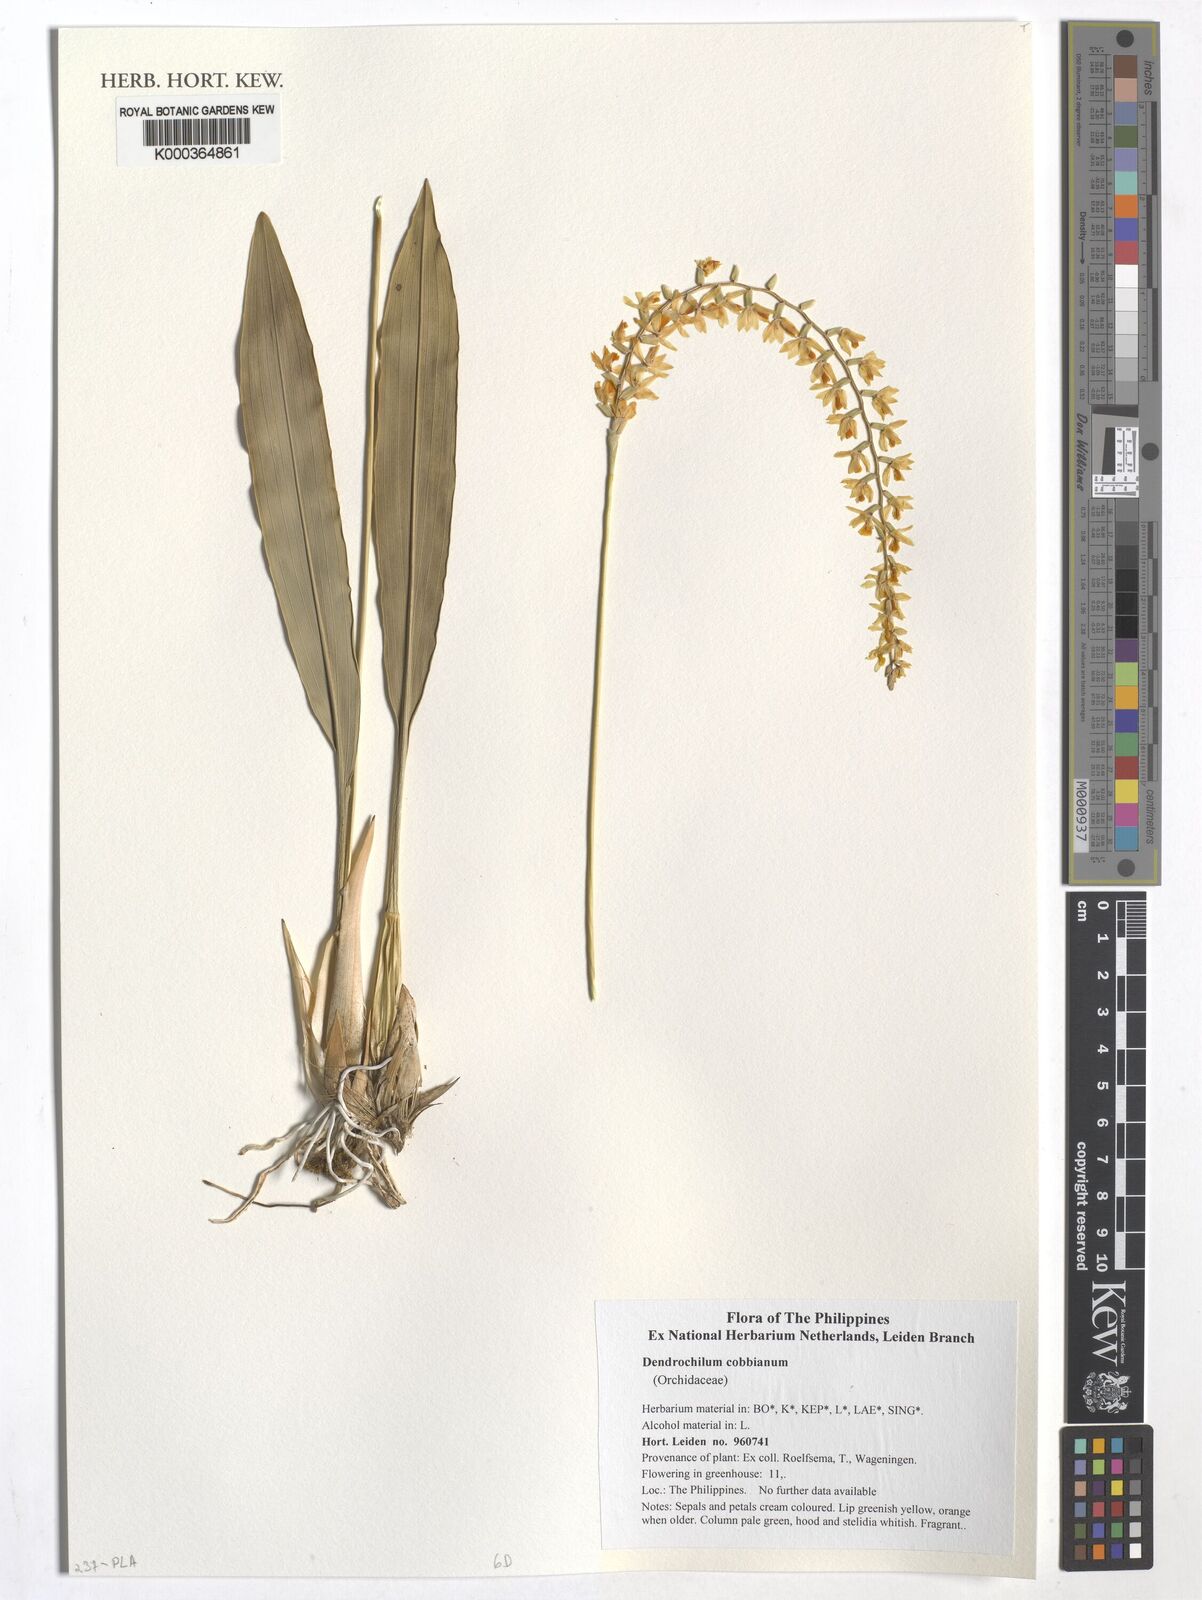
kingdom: Plantae
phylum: Tracheophyta
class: Liliopsida
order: Asparagales
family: Orchidaceae
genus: Coelogyne
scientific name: Coelogyne cobbiana
